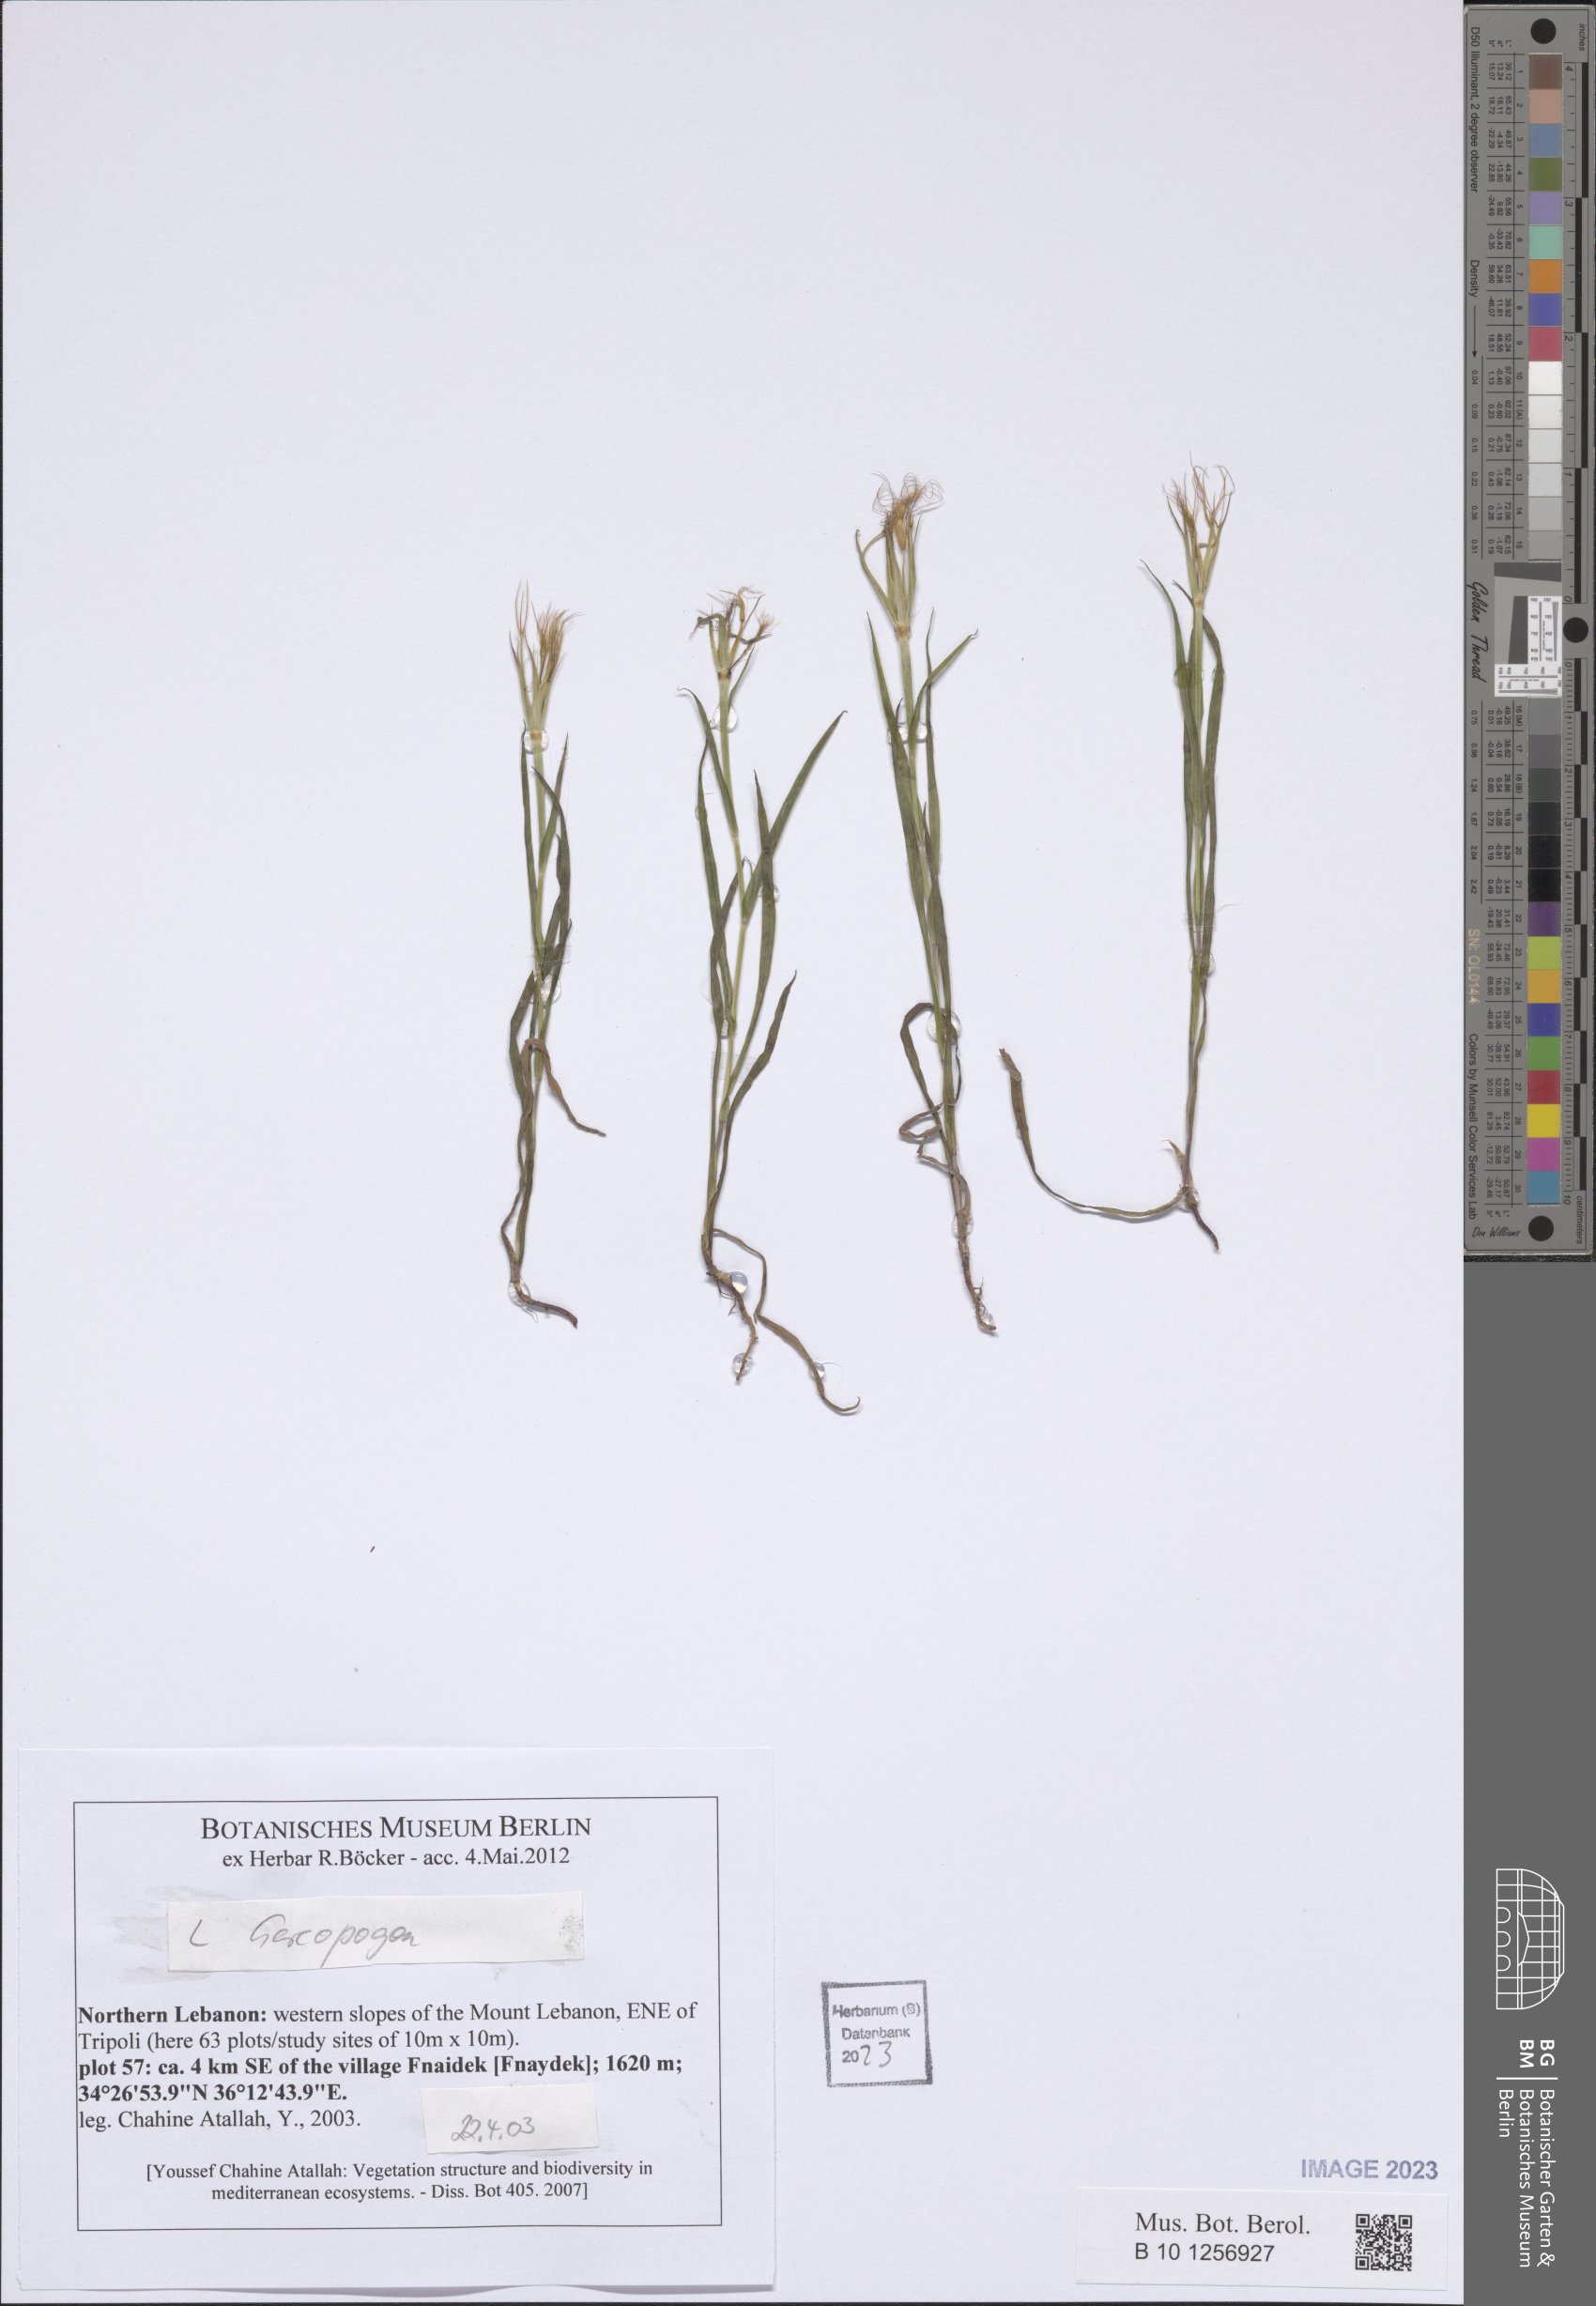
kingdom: Plantae
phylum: Tracheophyta
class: Magnoliopsida
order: Asterales
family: Asteraceae
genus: Geropogon
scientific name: Geropogon
